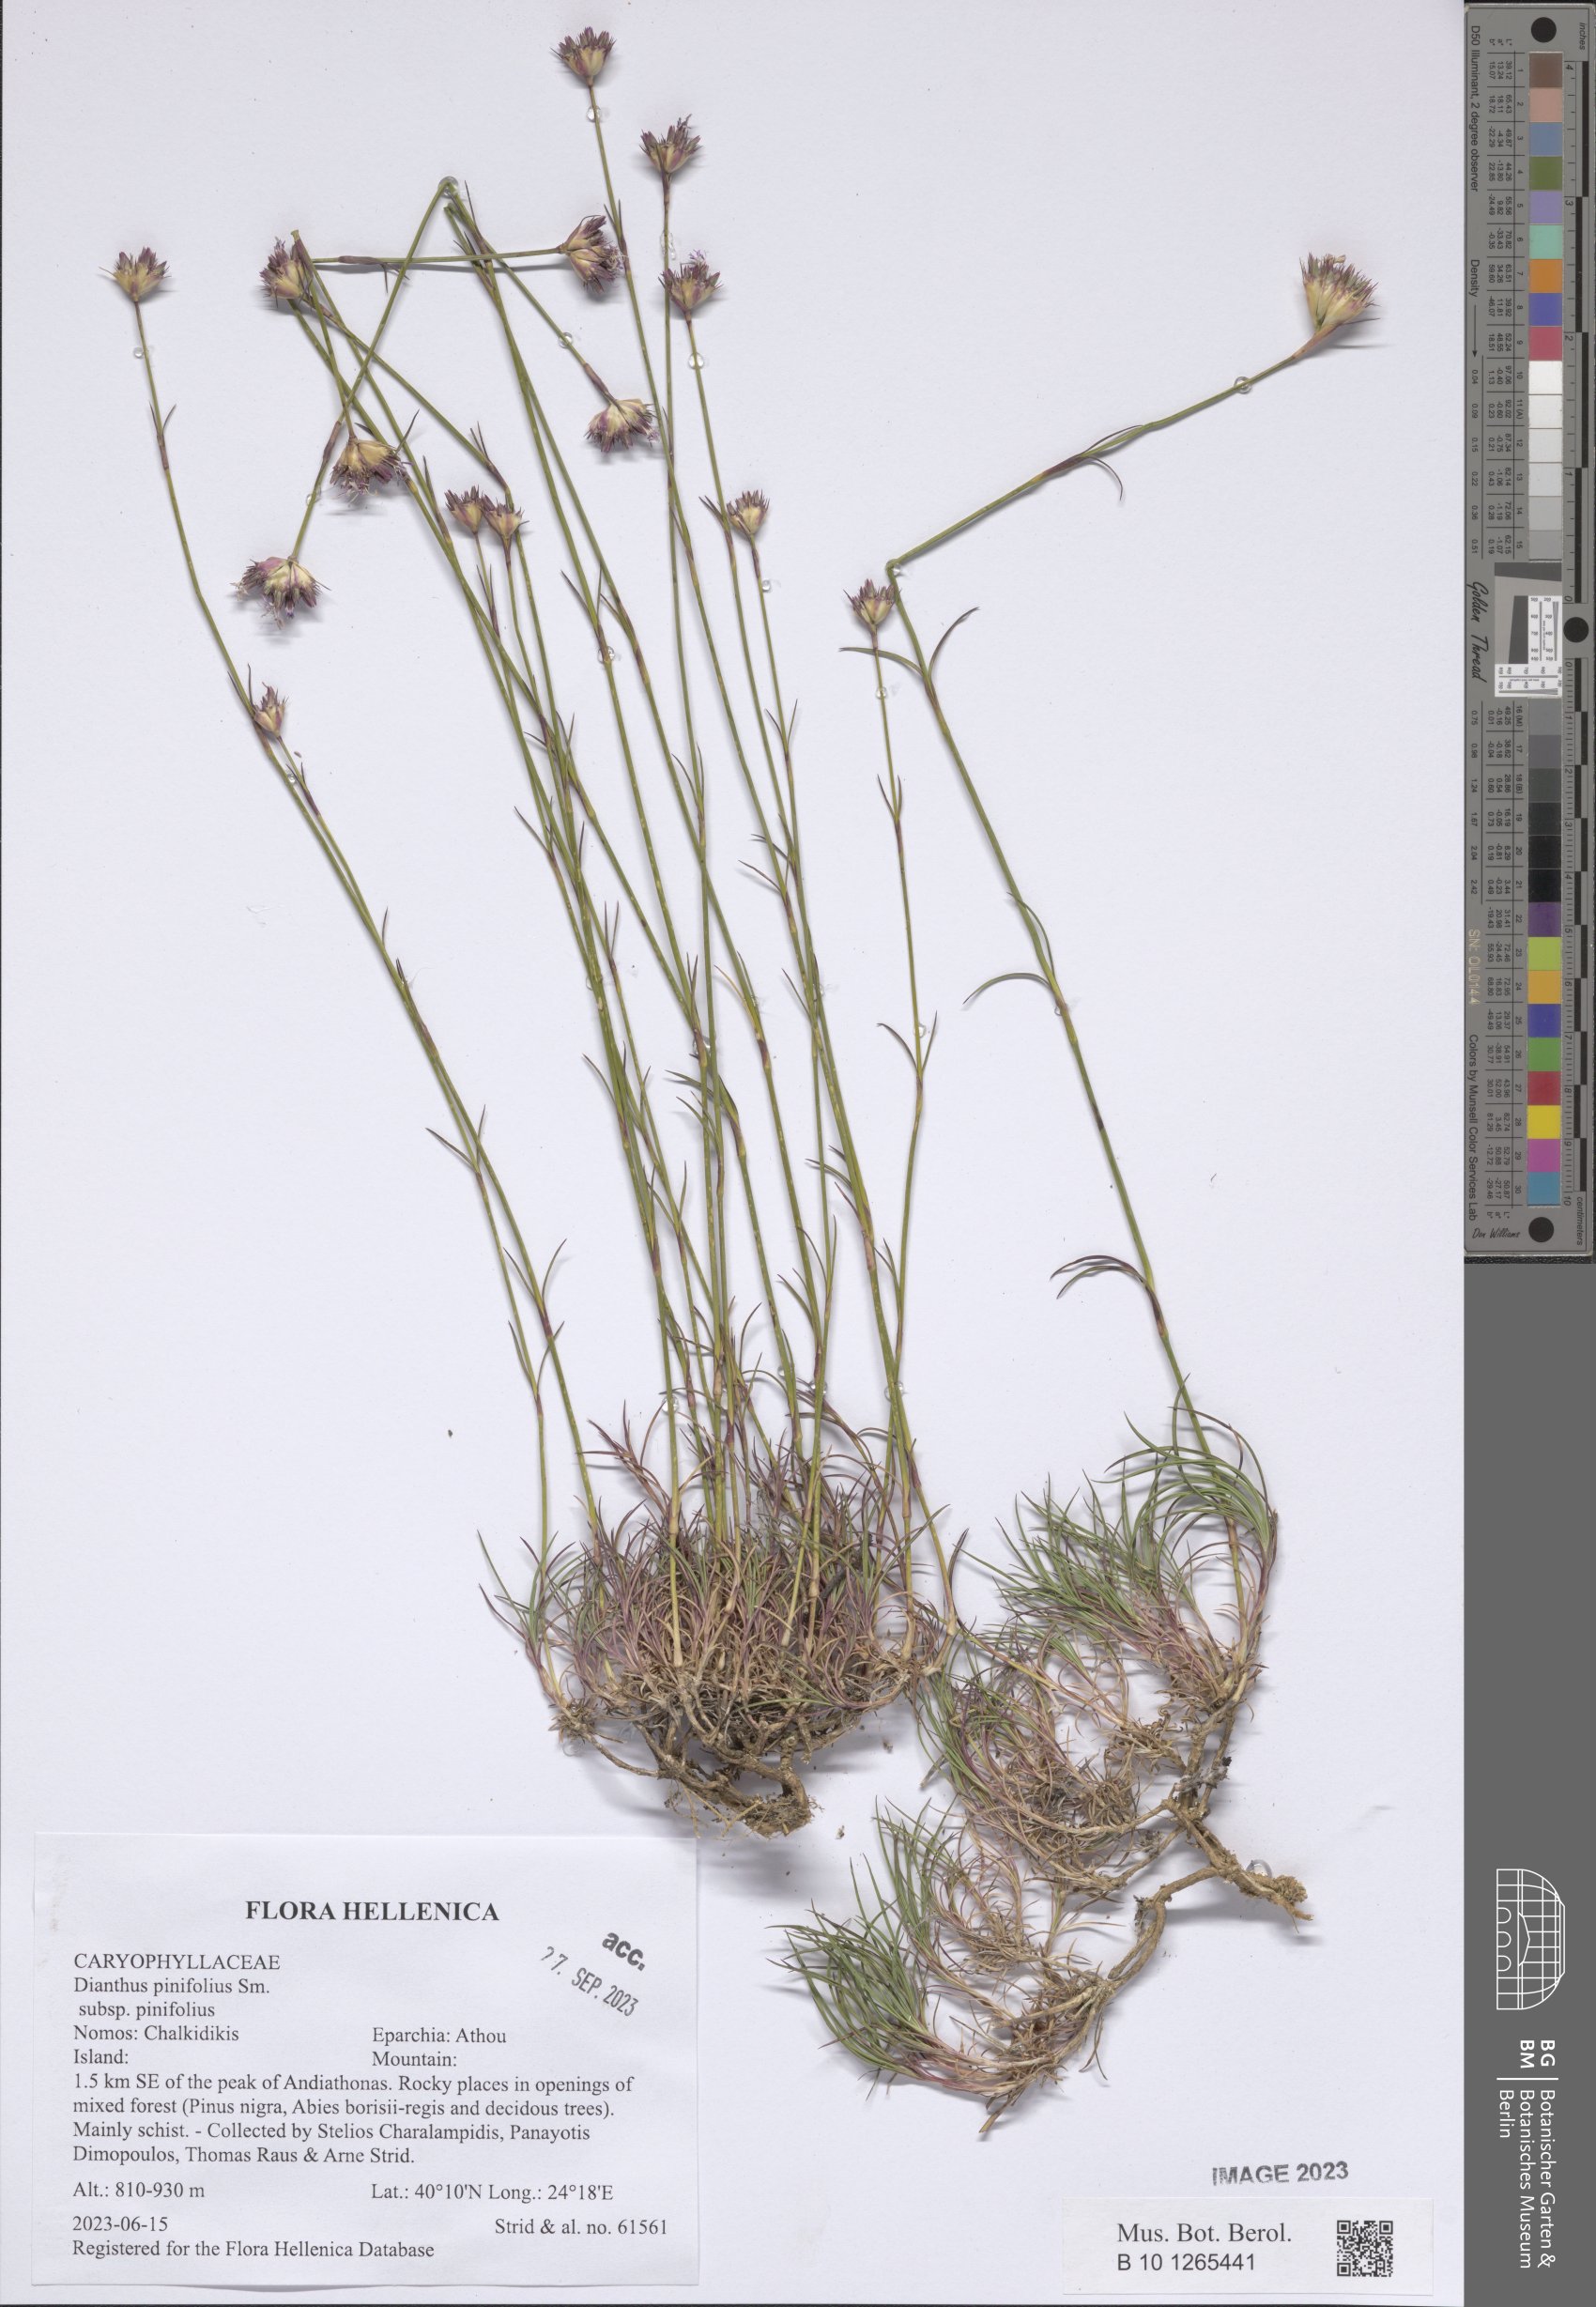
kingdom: Plantae
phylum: Tracheophyta
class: Magnoliopsida
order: Caryophyllales
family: Caryophyllaceae
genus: Dianthus
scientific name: Dianthus pinifolius
